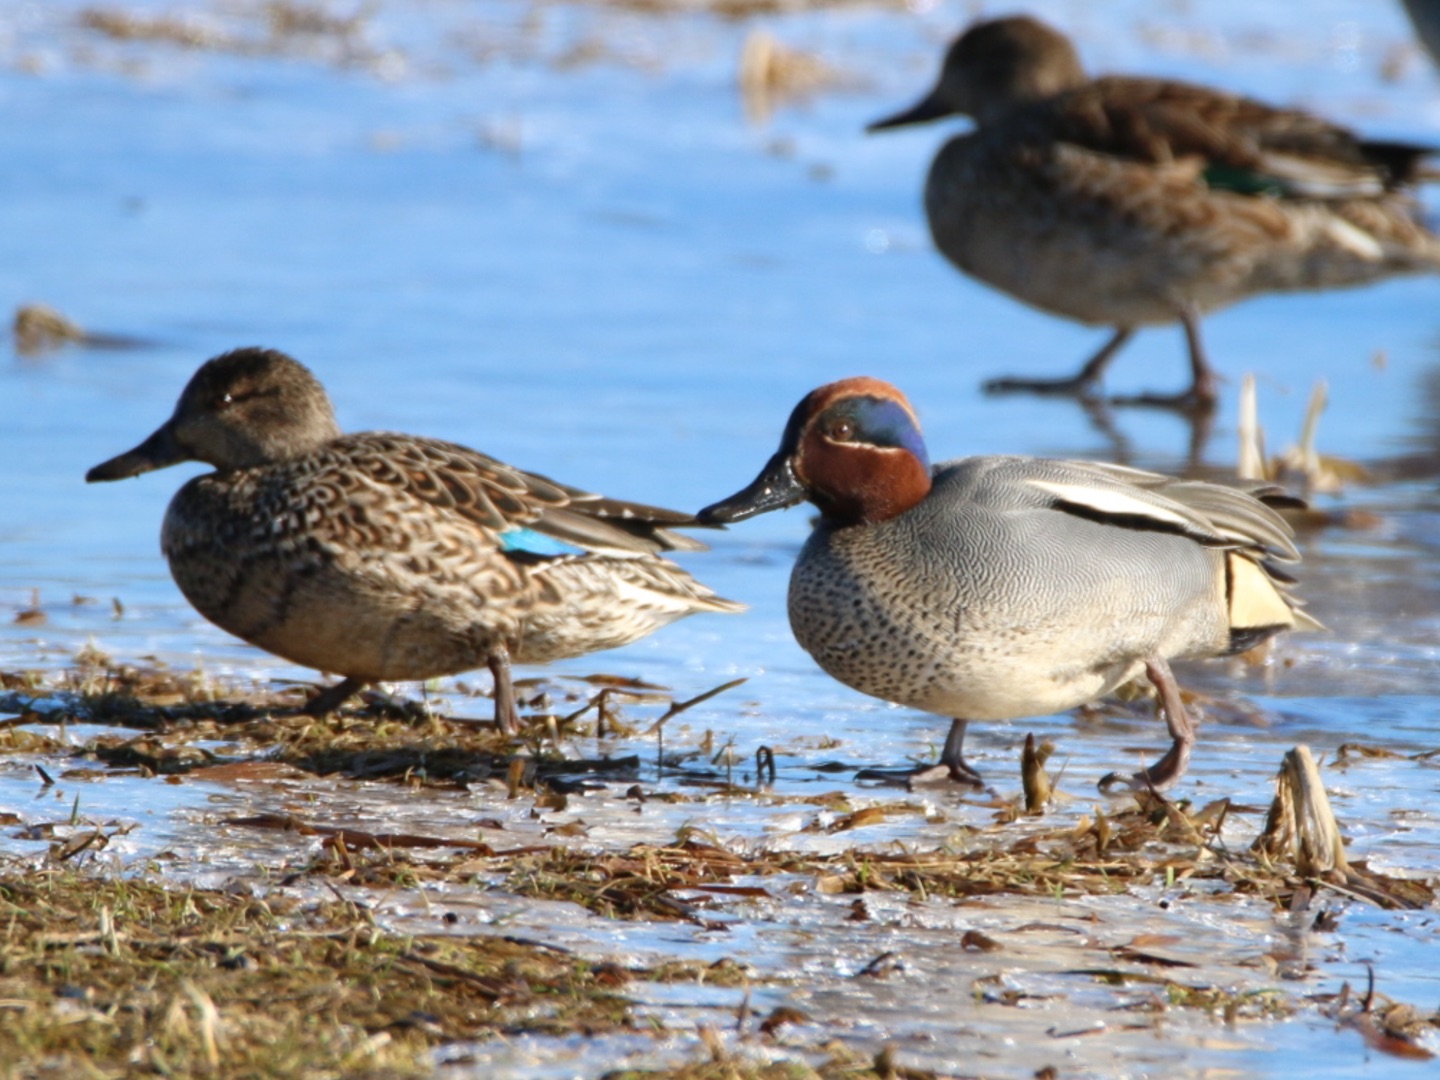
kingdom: Animalia
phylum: Chordata
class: Aves
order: Anseriformes
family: Anatidae
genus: Anas
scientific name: Anas crecca
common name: Krikand
